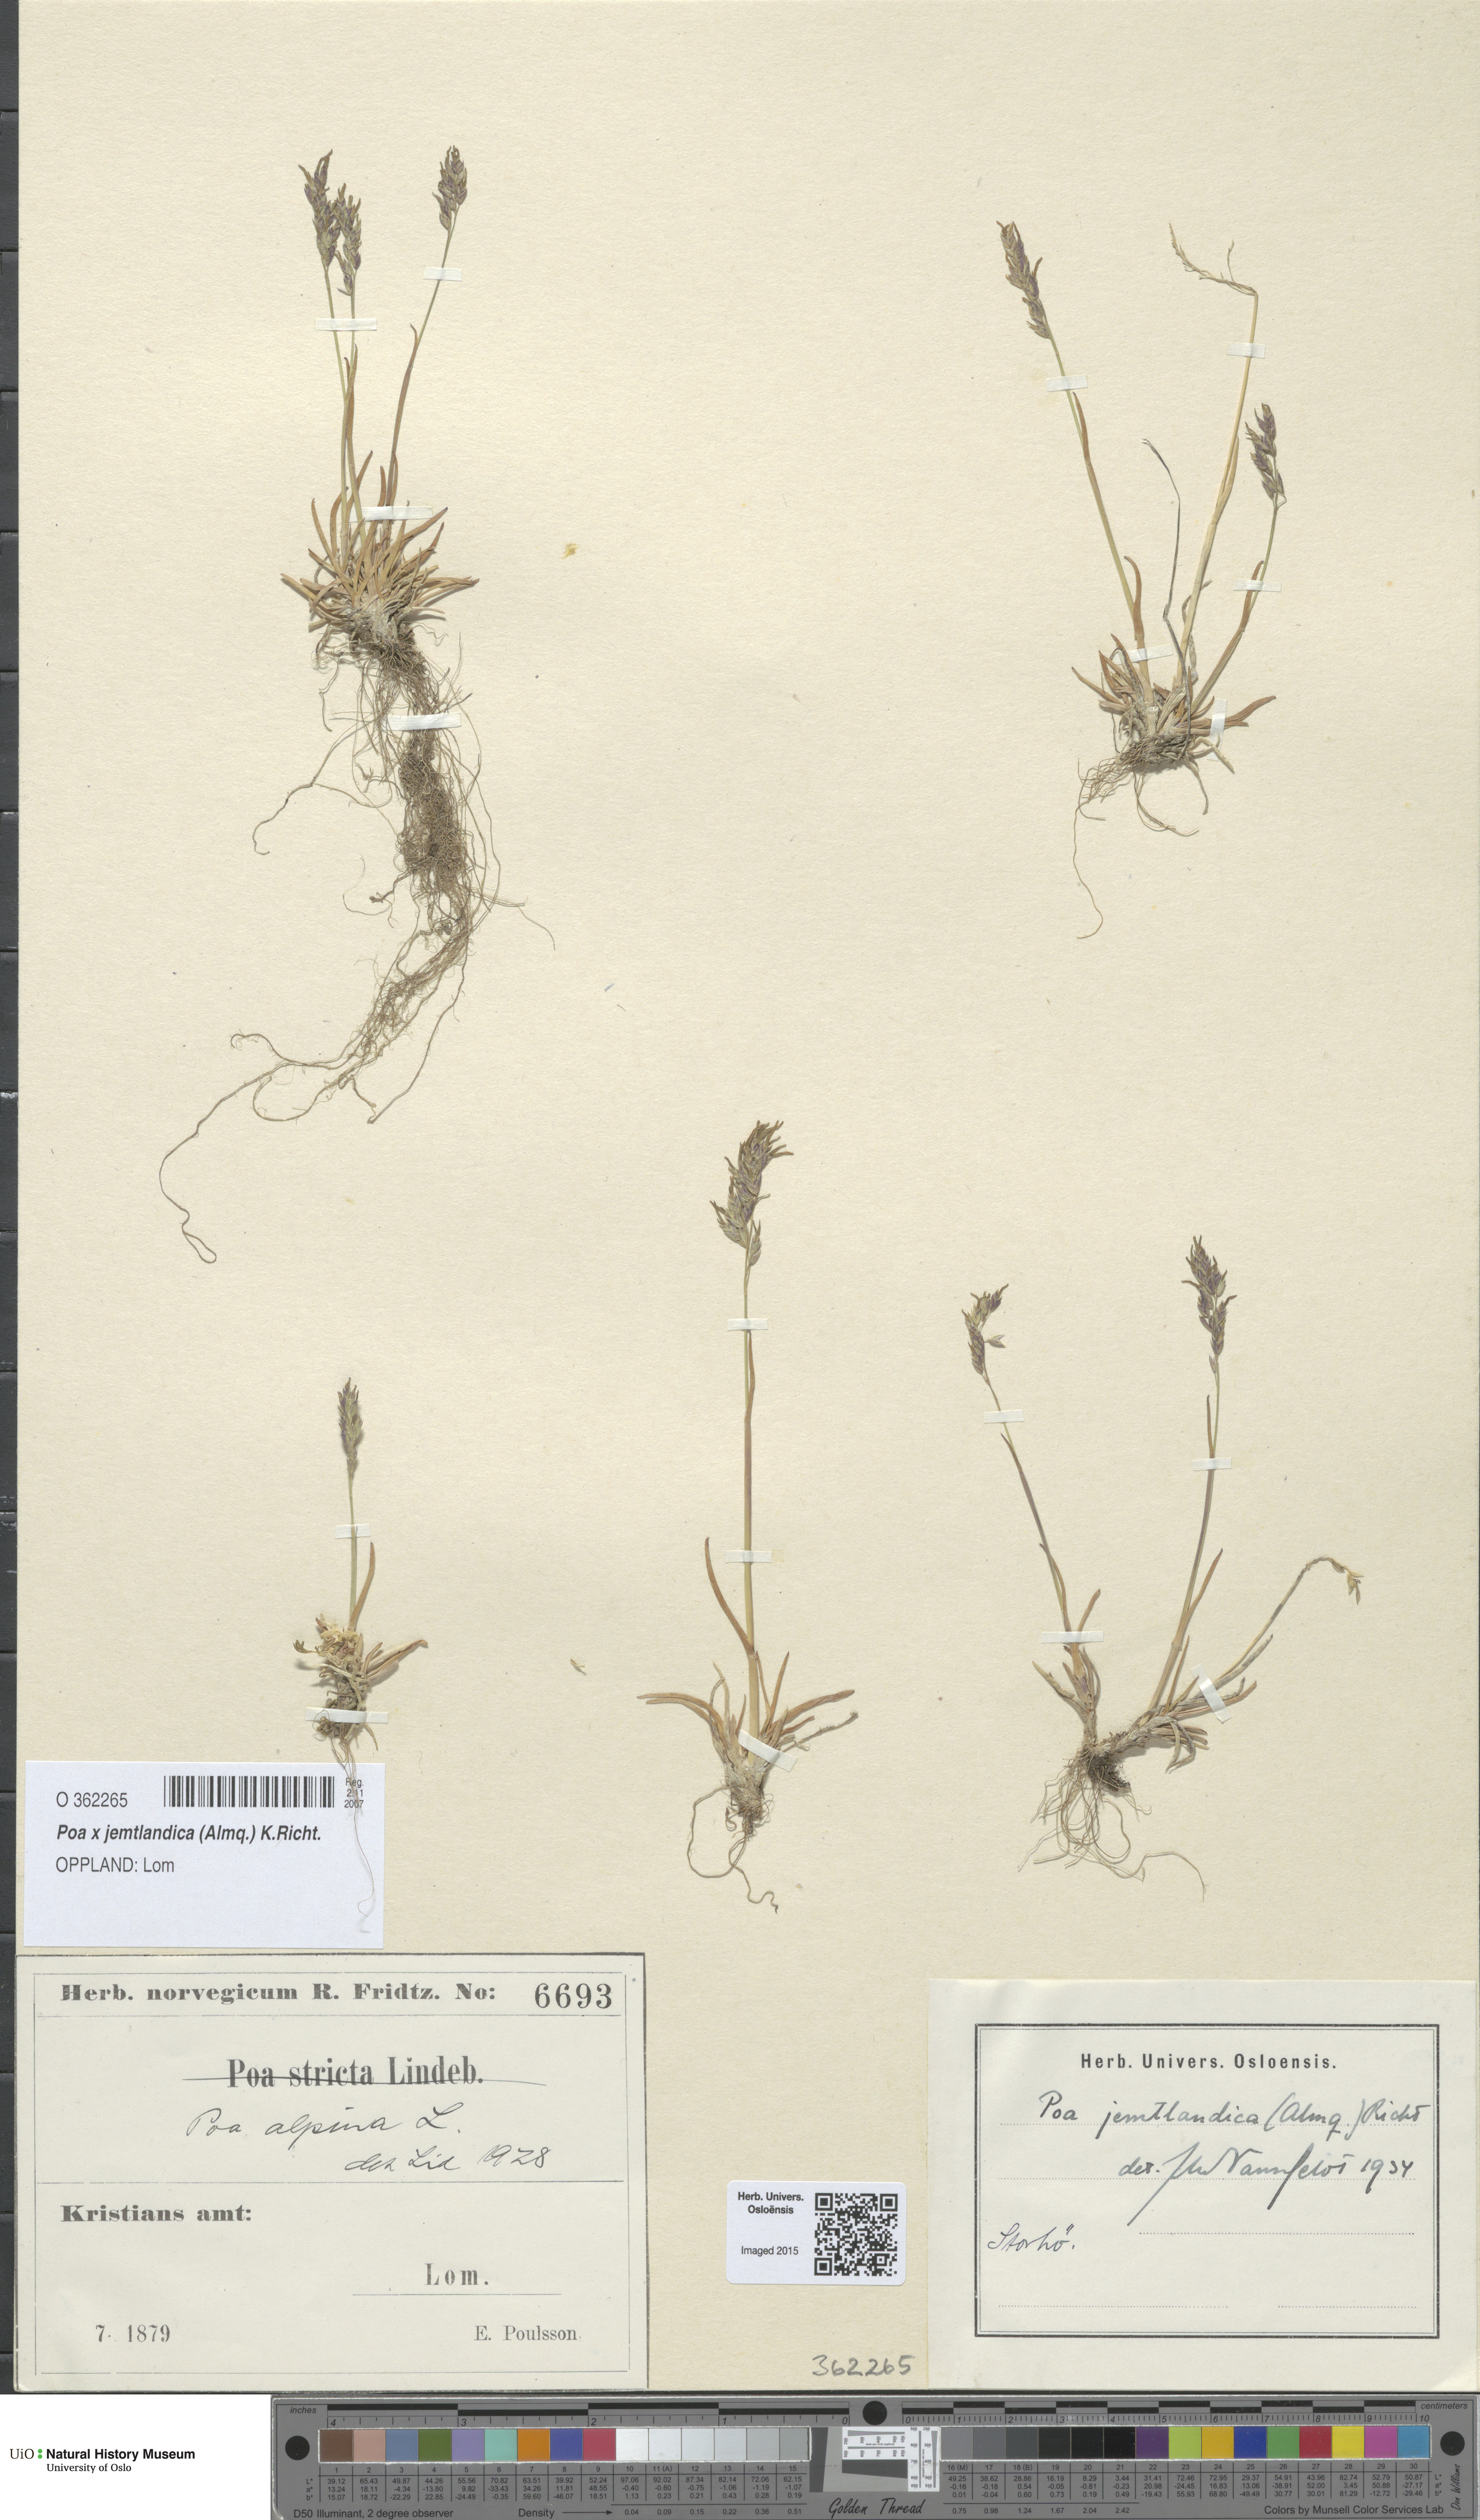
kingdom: Plantae
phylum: Tracheophyta
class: Liliopsida
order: Poales
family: Poaceae
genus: Poa
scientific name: Poa jemtlandica
